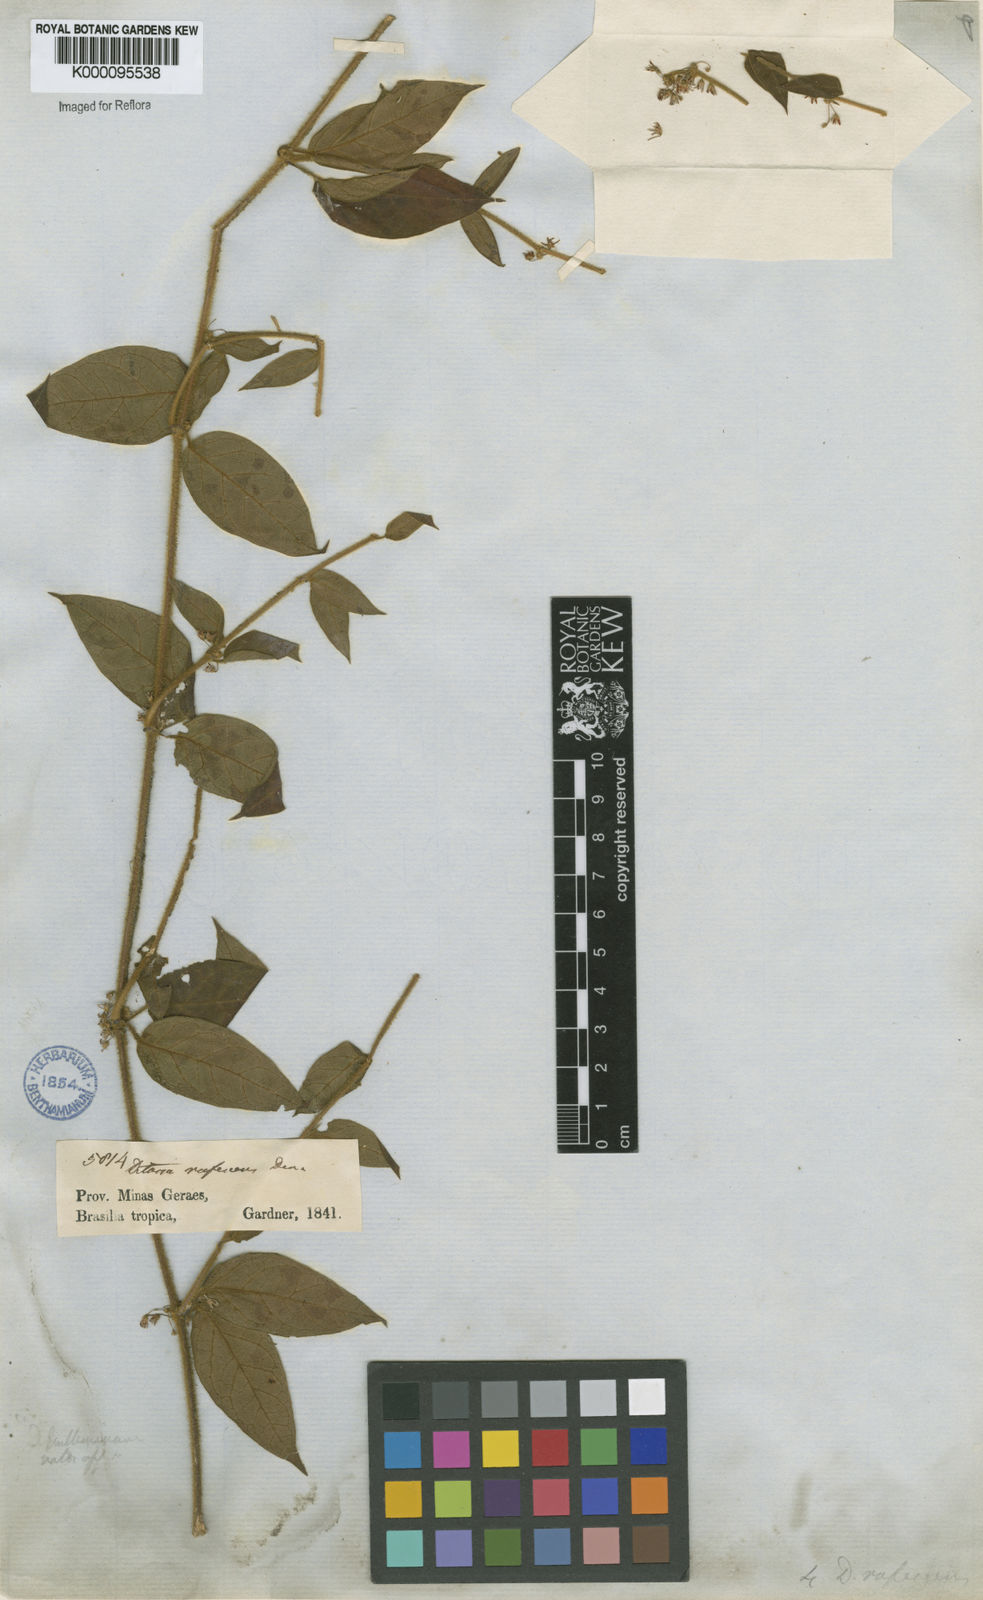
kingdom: Plantae
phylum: Tracheophyta
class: Magnoliopsida
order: Gentianales
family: Apocynaceae
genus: Ditassa
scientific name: Ditassa hispida
